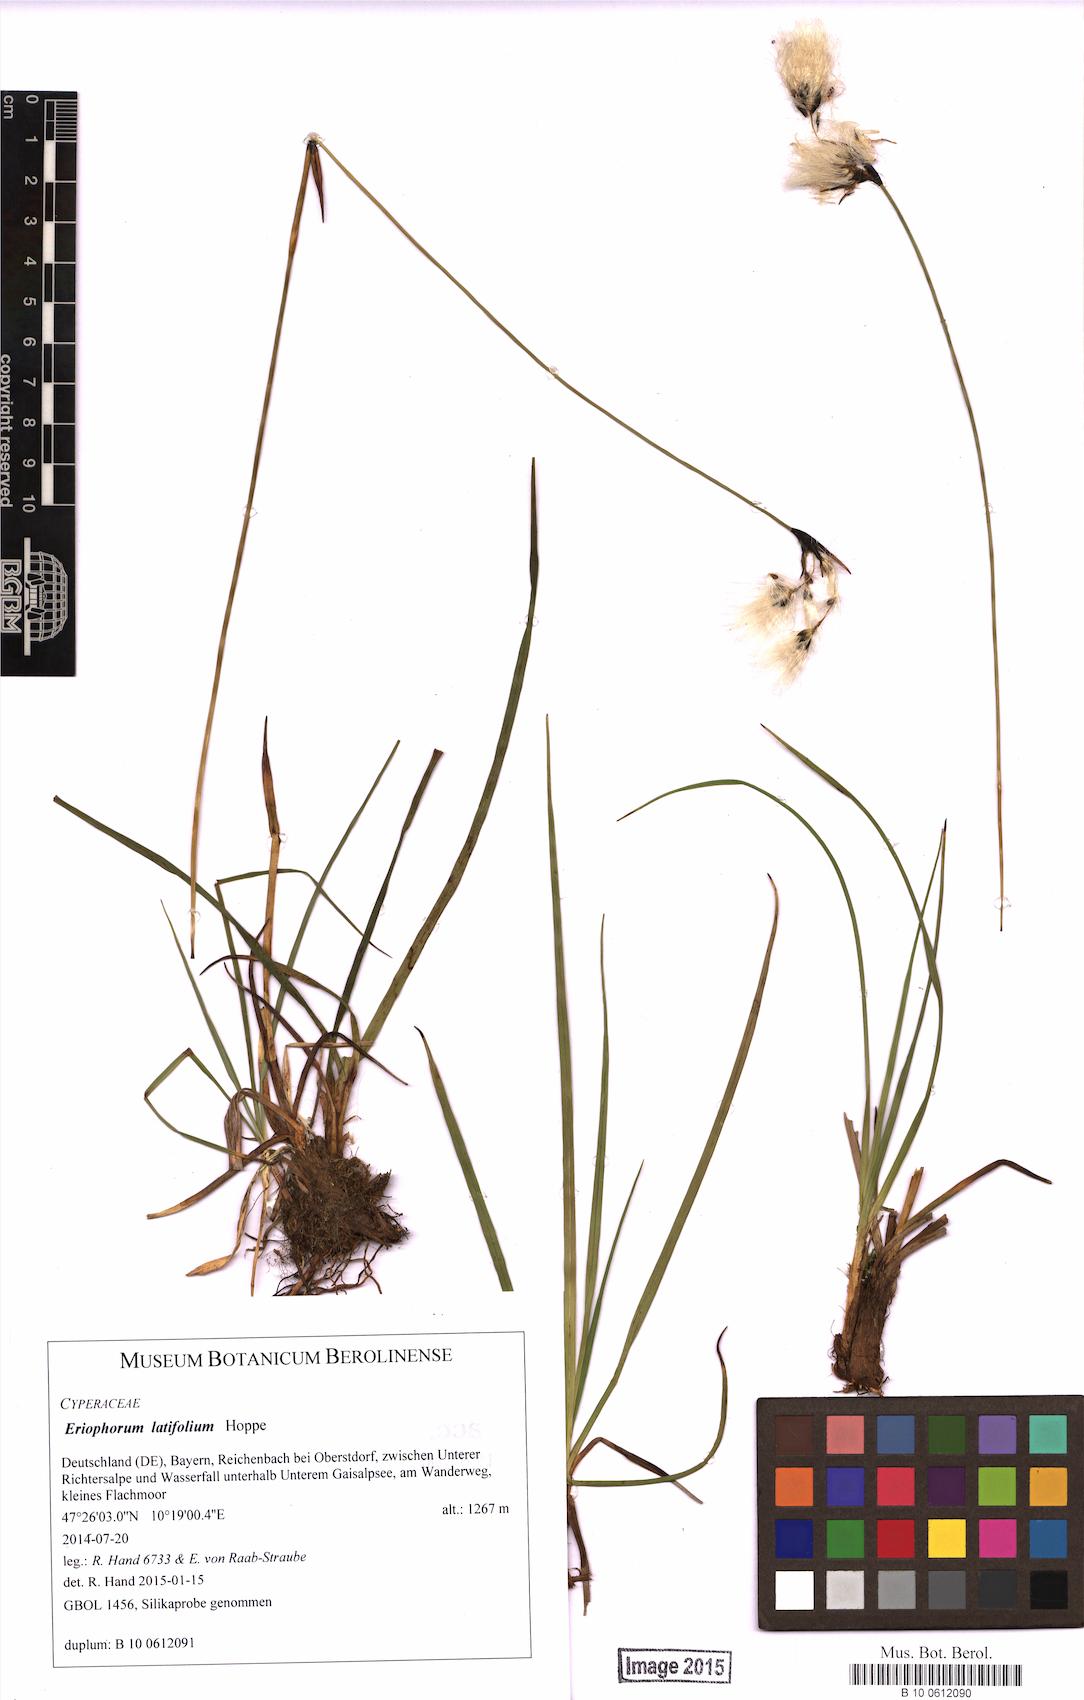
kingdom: Plantae
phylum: Tracheophyta
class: Liliopsida
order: Poales
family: Cyperaceae
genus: Eriophorum
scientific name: Eriophorum latifolium
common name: Broad-leaved cottongrass
